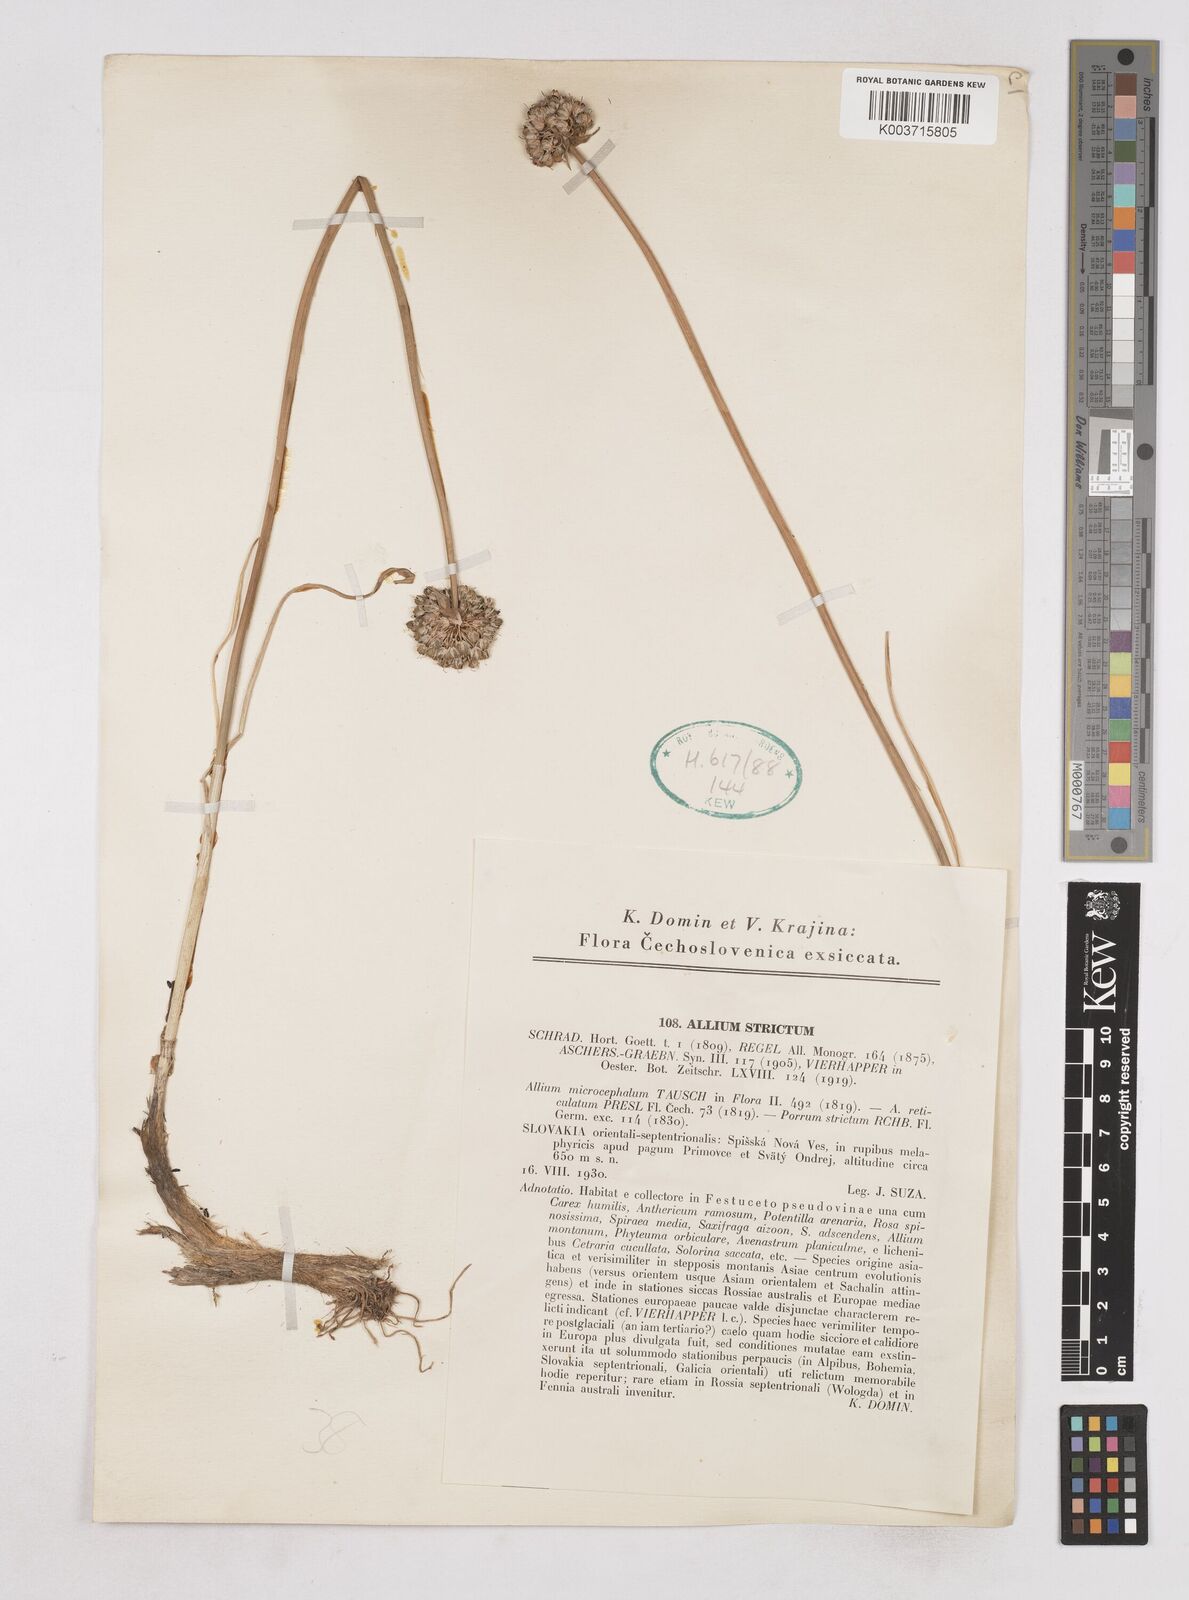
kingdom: Plantae
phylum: Tracheophyta
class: Liliopsida
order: Asparagales
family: Amaryllidaceae
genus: Allium
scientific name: Allium strictum
